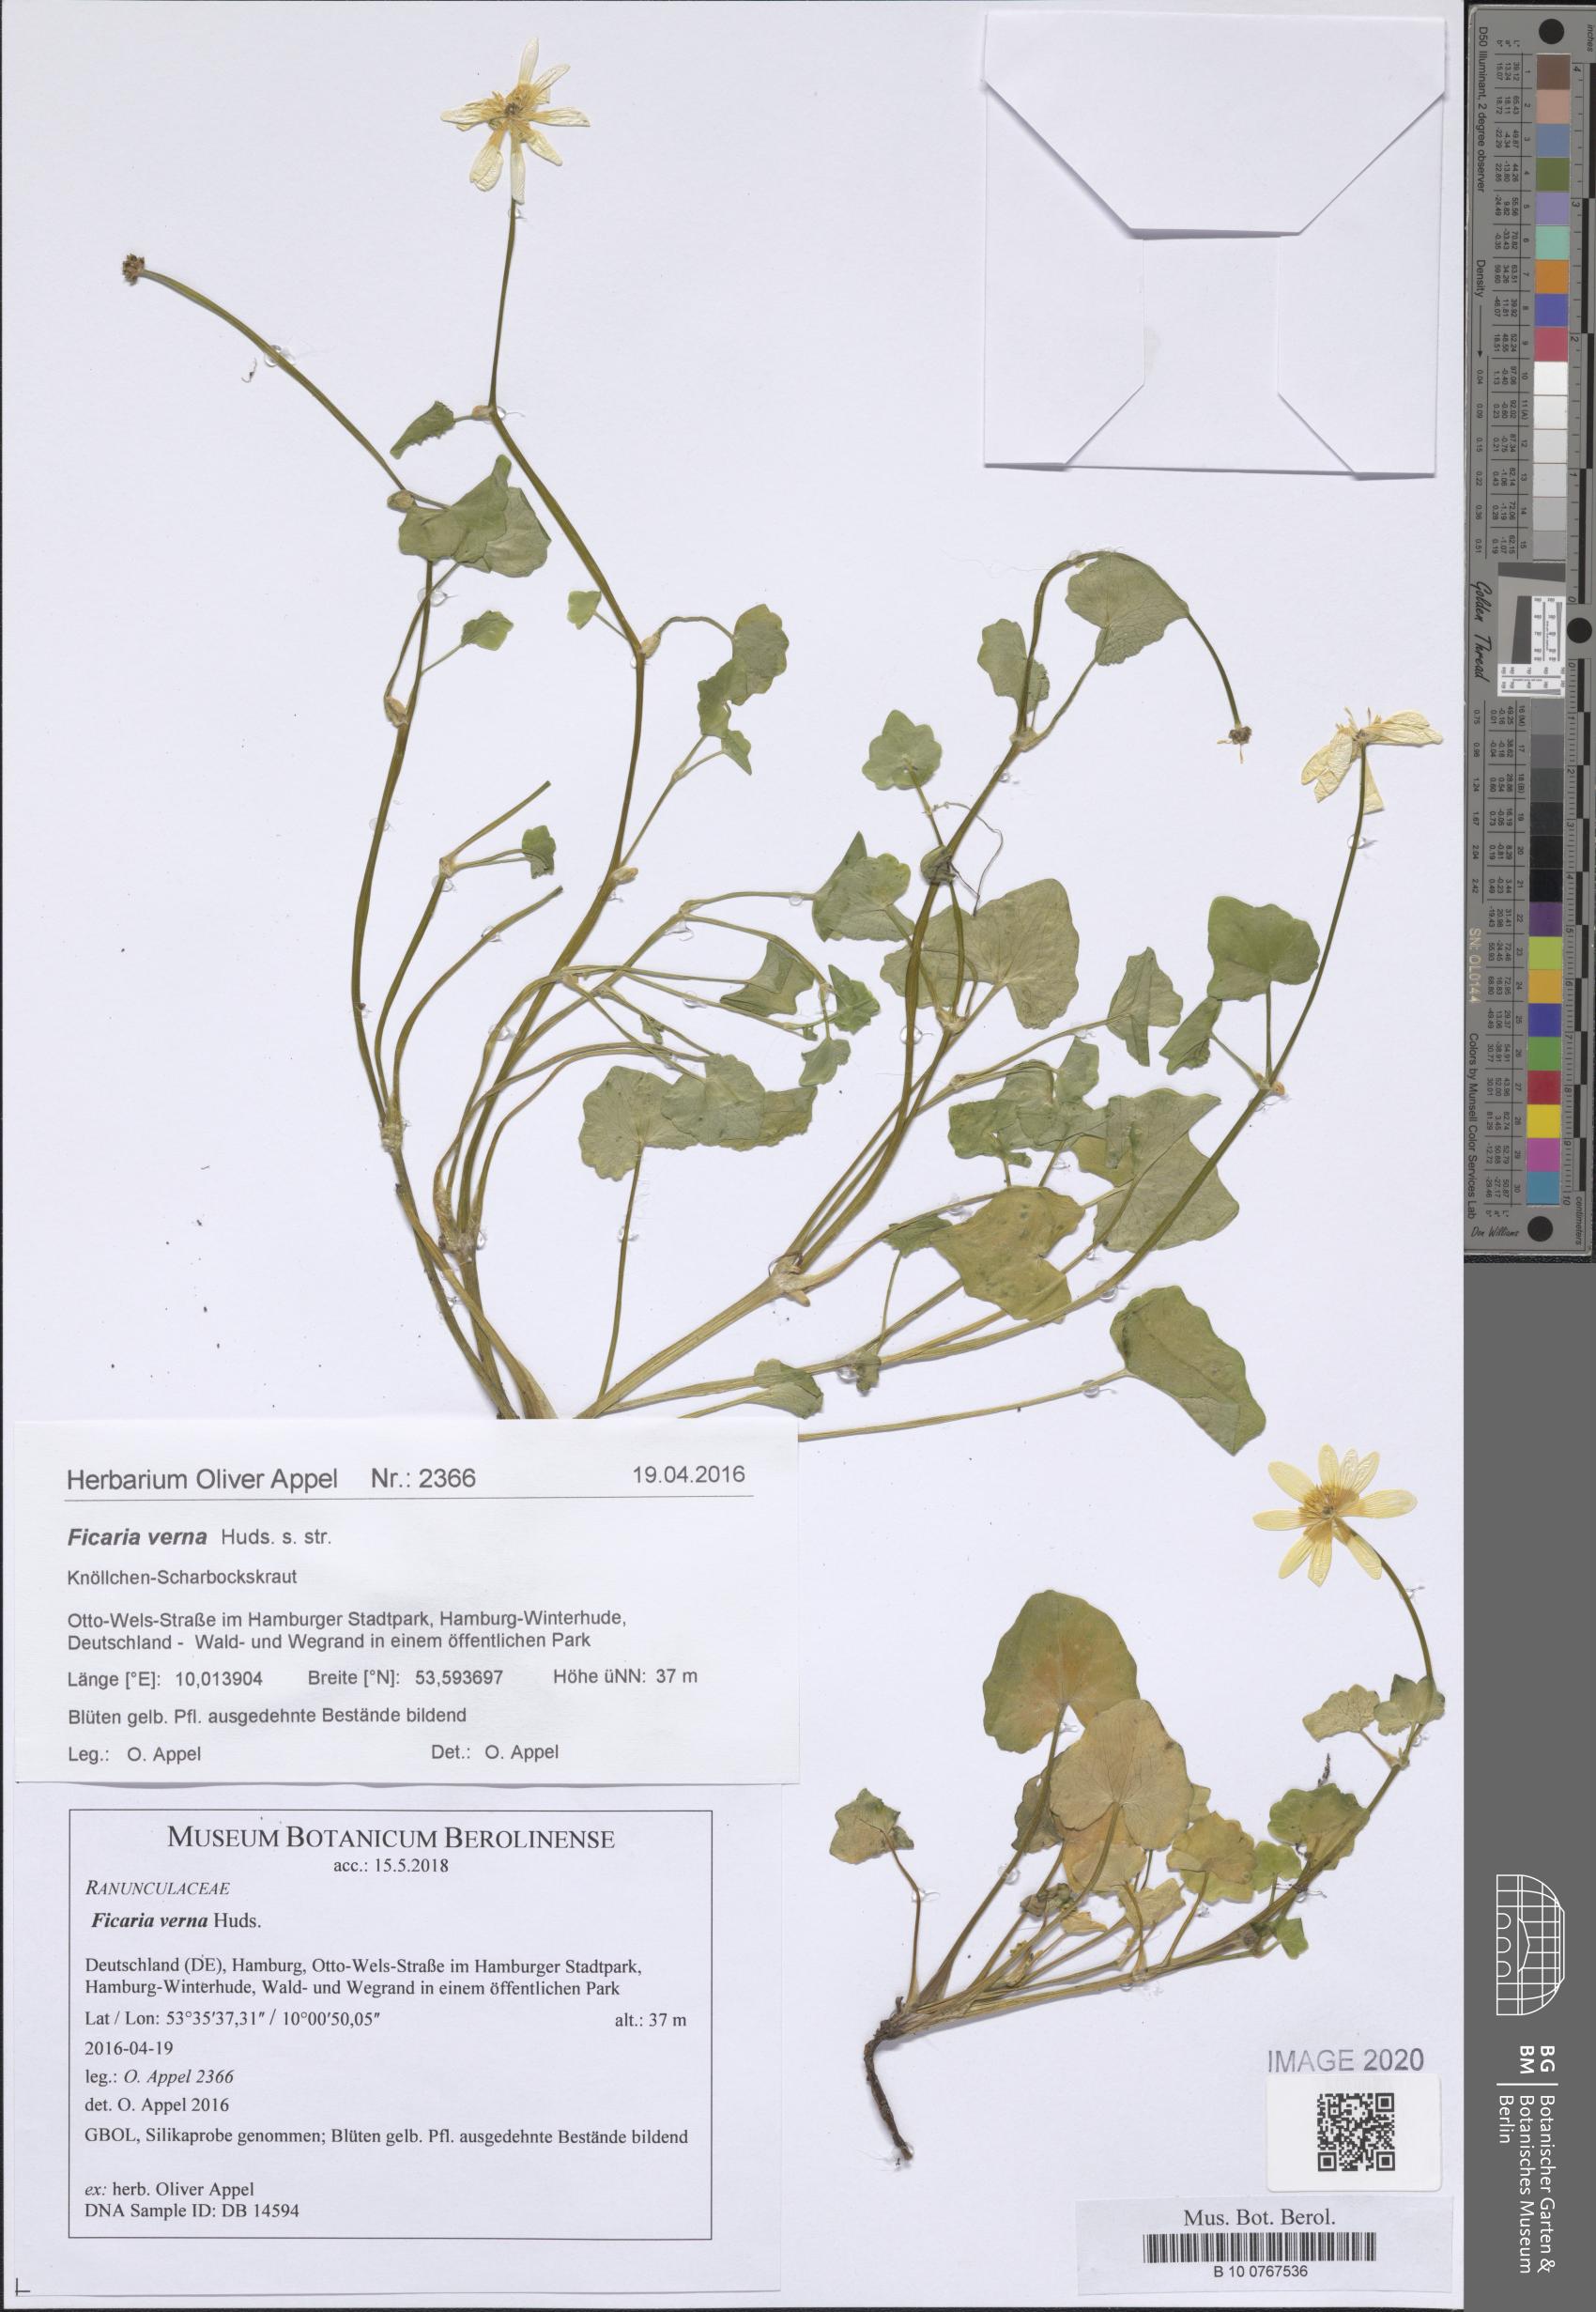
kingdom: Plantae
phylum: Tracheophyta
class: Magnoliopsida
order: Ranunculales
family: Ranunculaceae
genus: Ficaria
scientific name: Ficaria verna
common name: Lesser celandine
